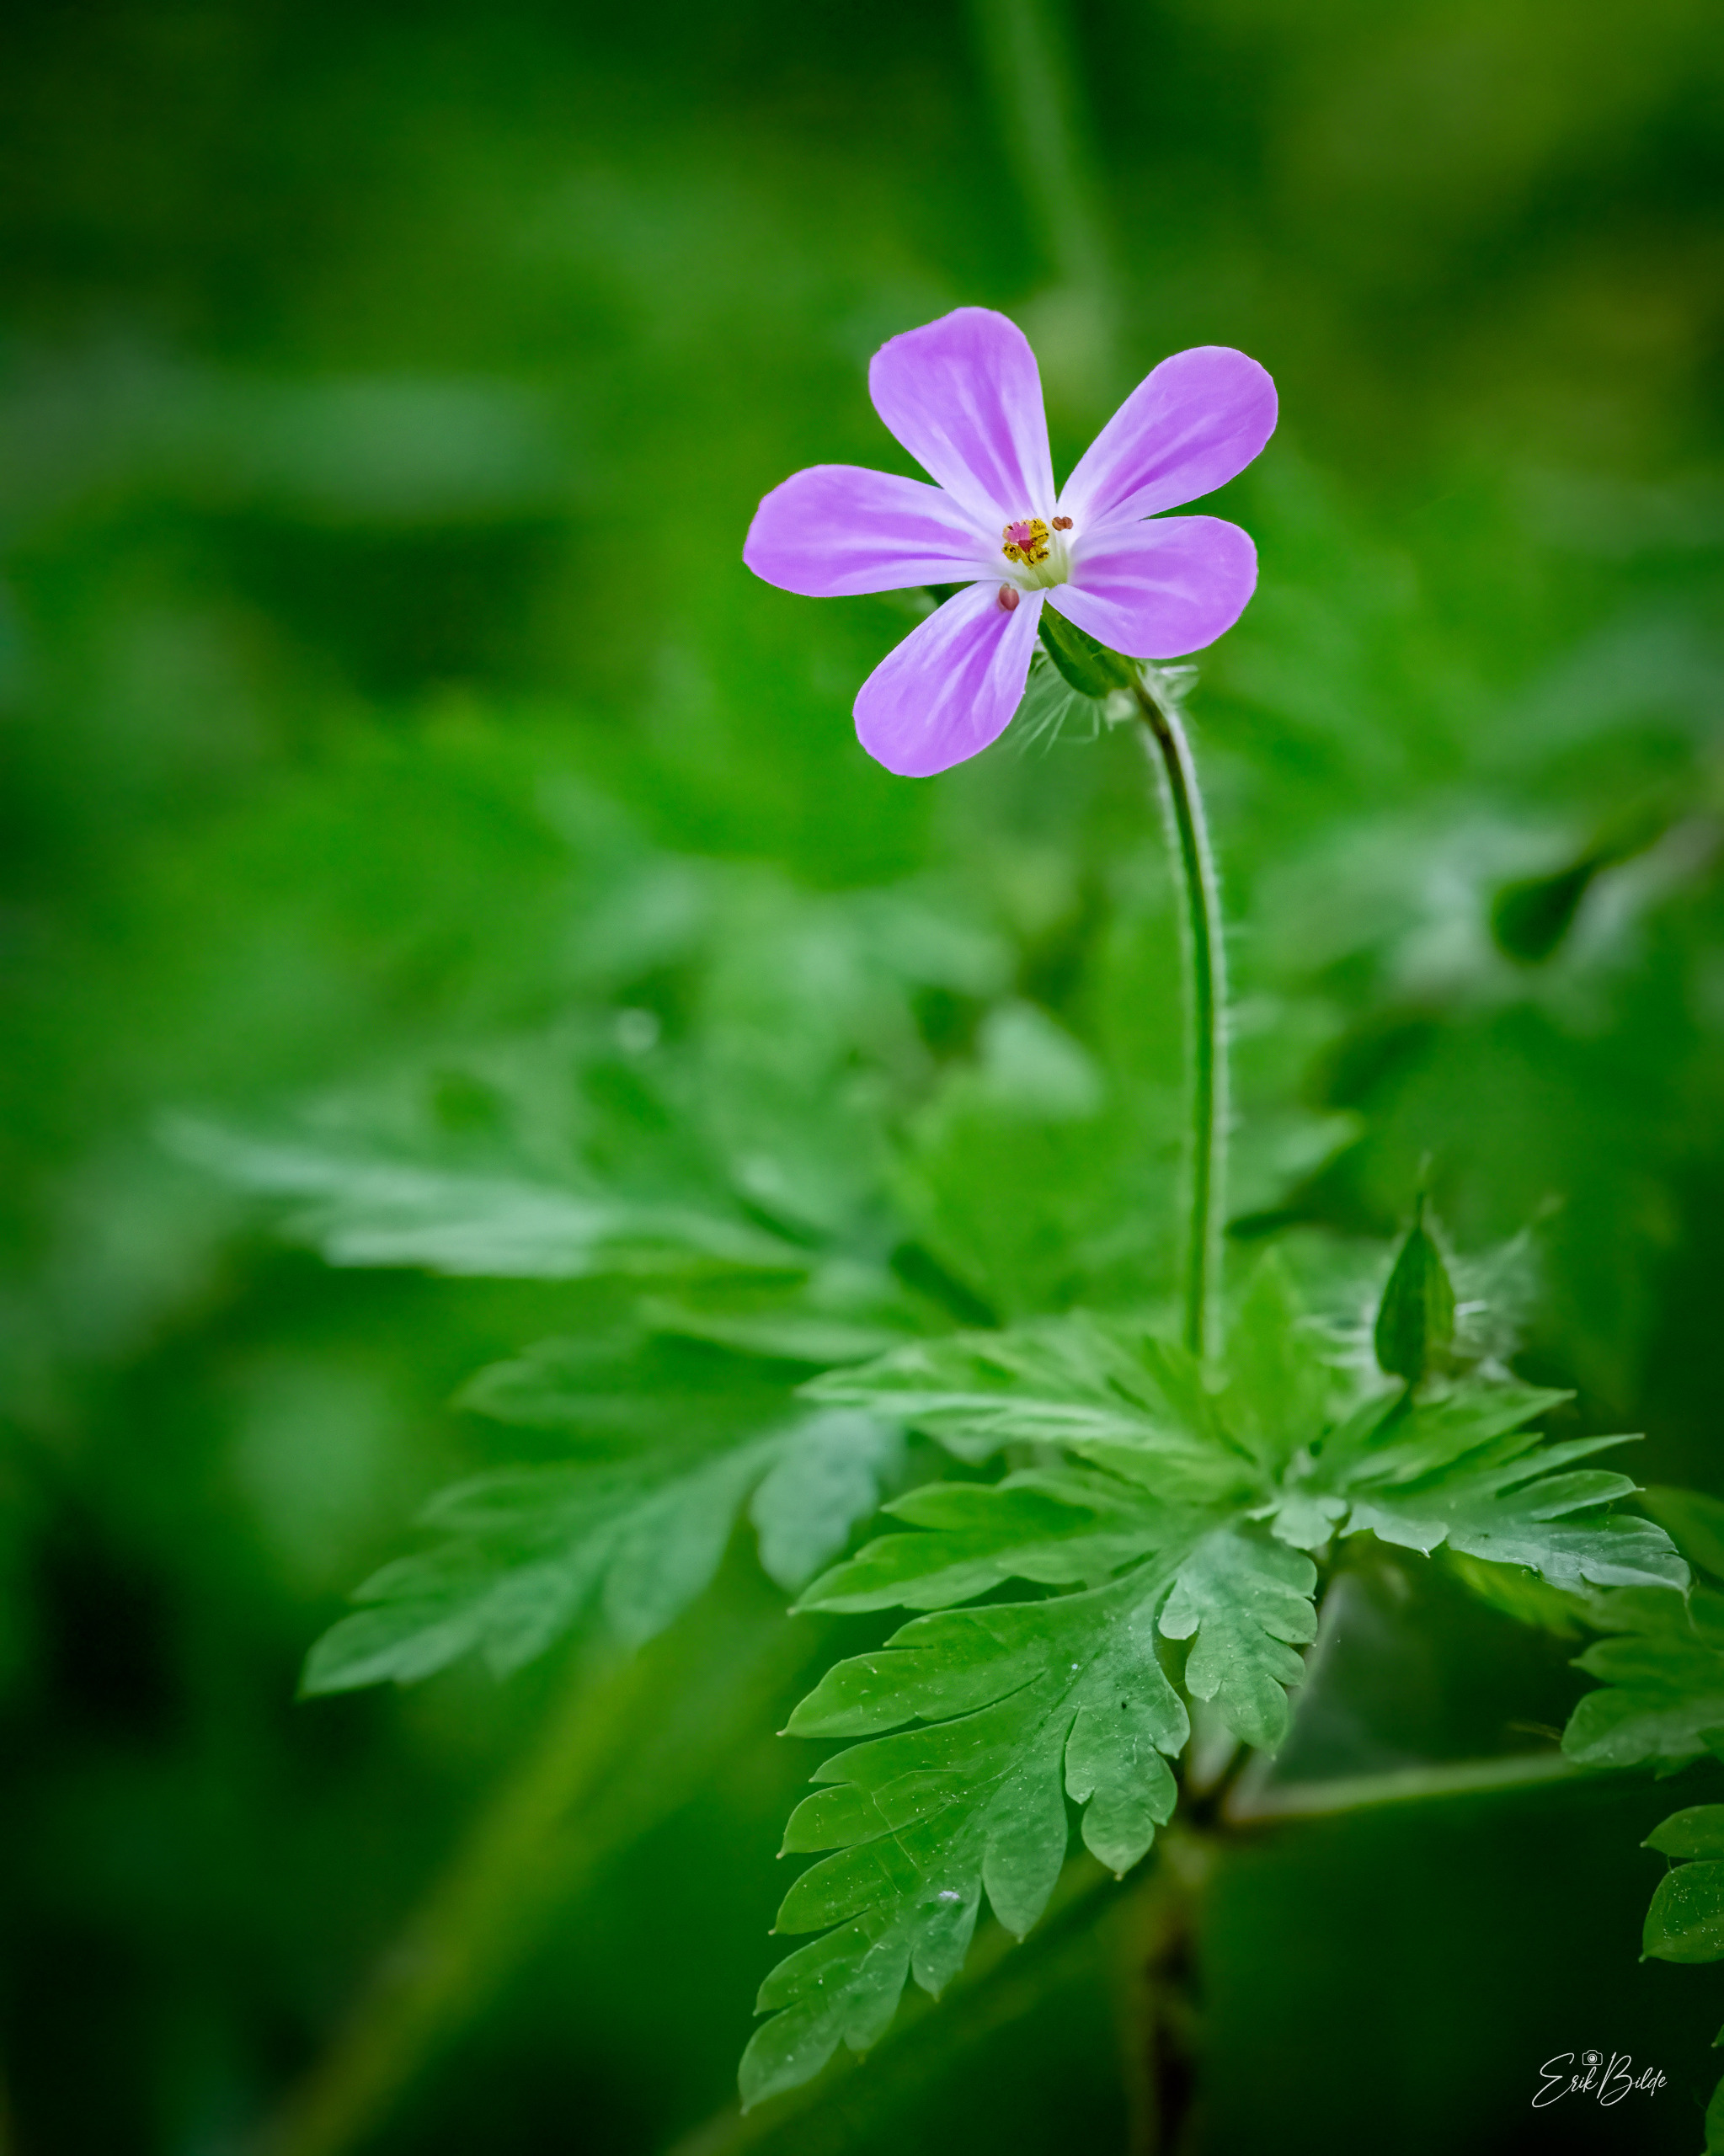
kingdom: Plantae
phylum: Tracheophyta
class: Magnoliopsida
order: Geraniales
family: Geraniaceae
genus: Geranium
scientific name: Geranium robertianum
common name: Stinkende storkenæb
